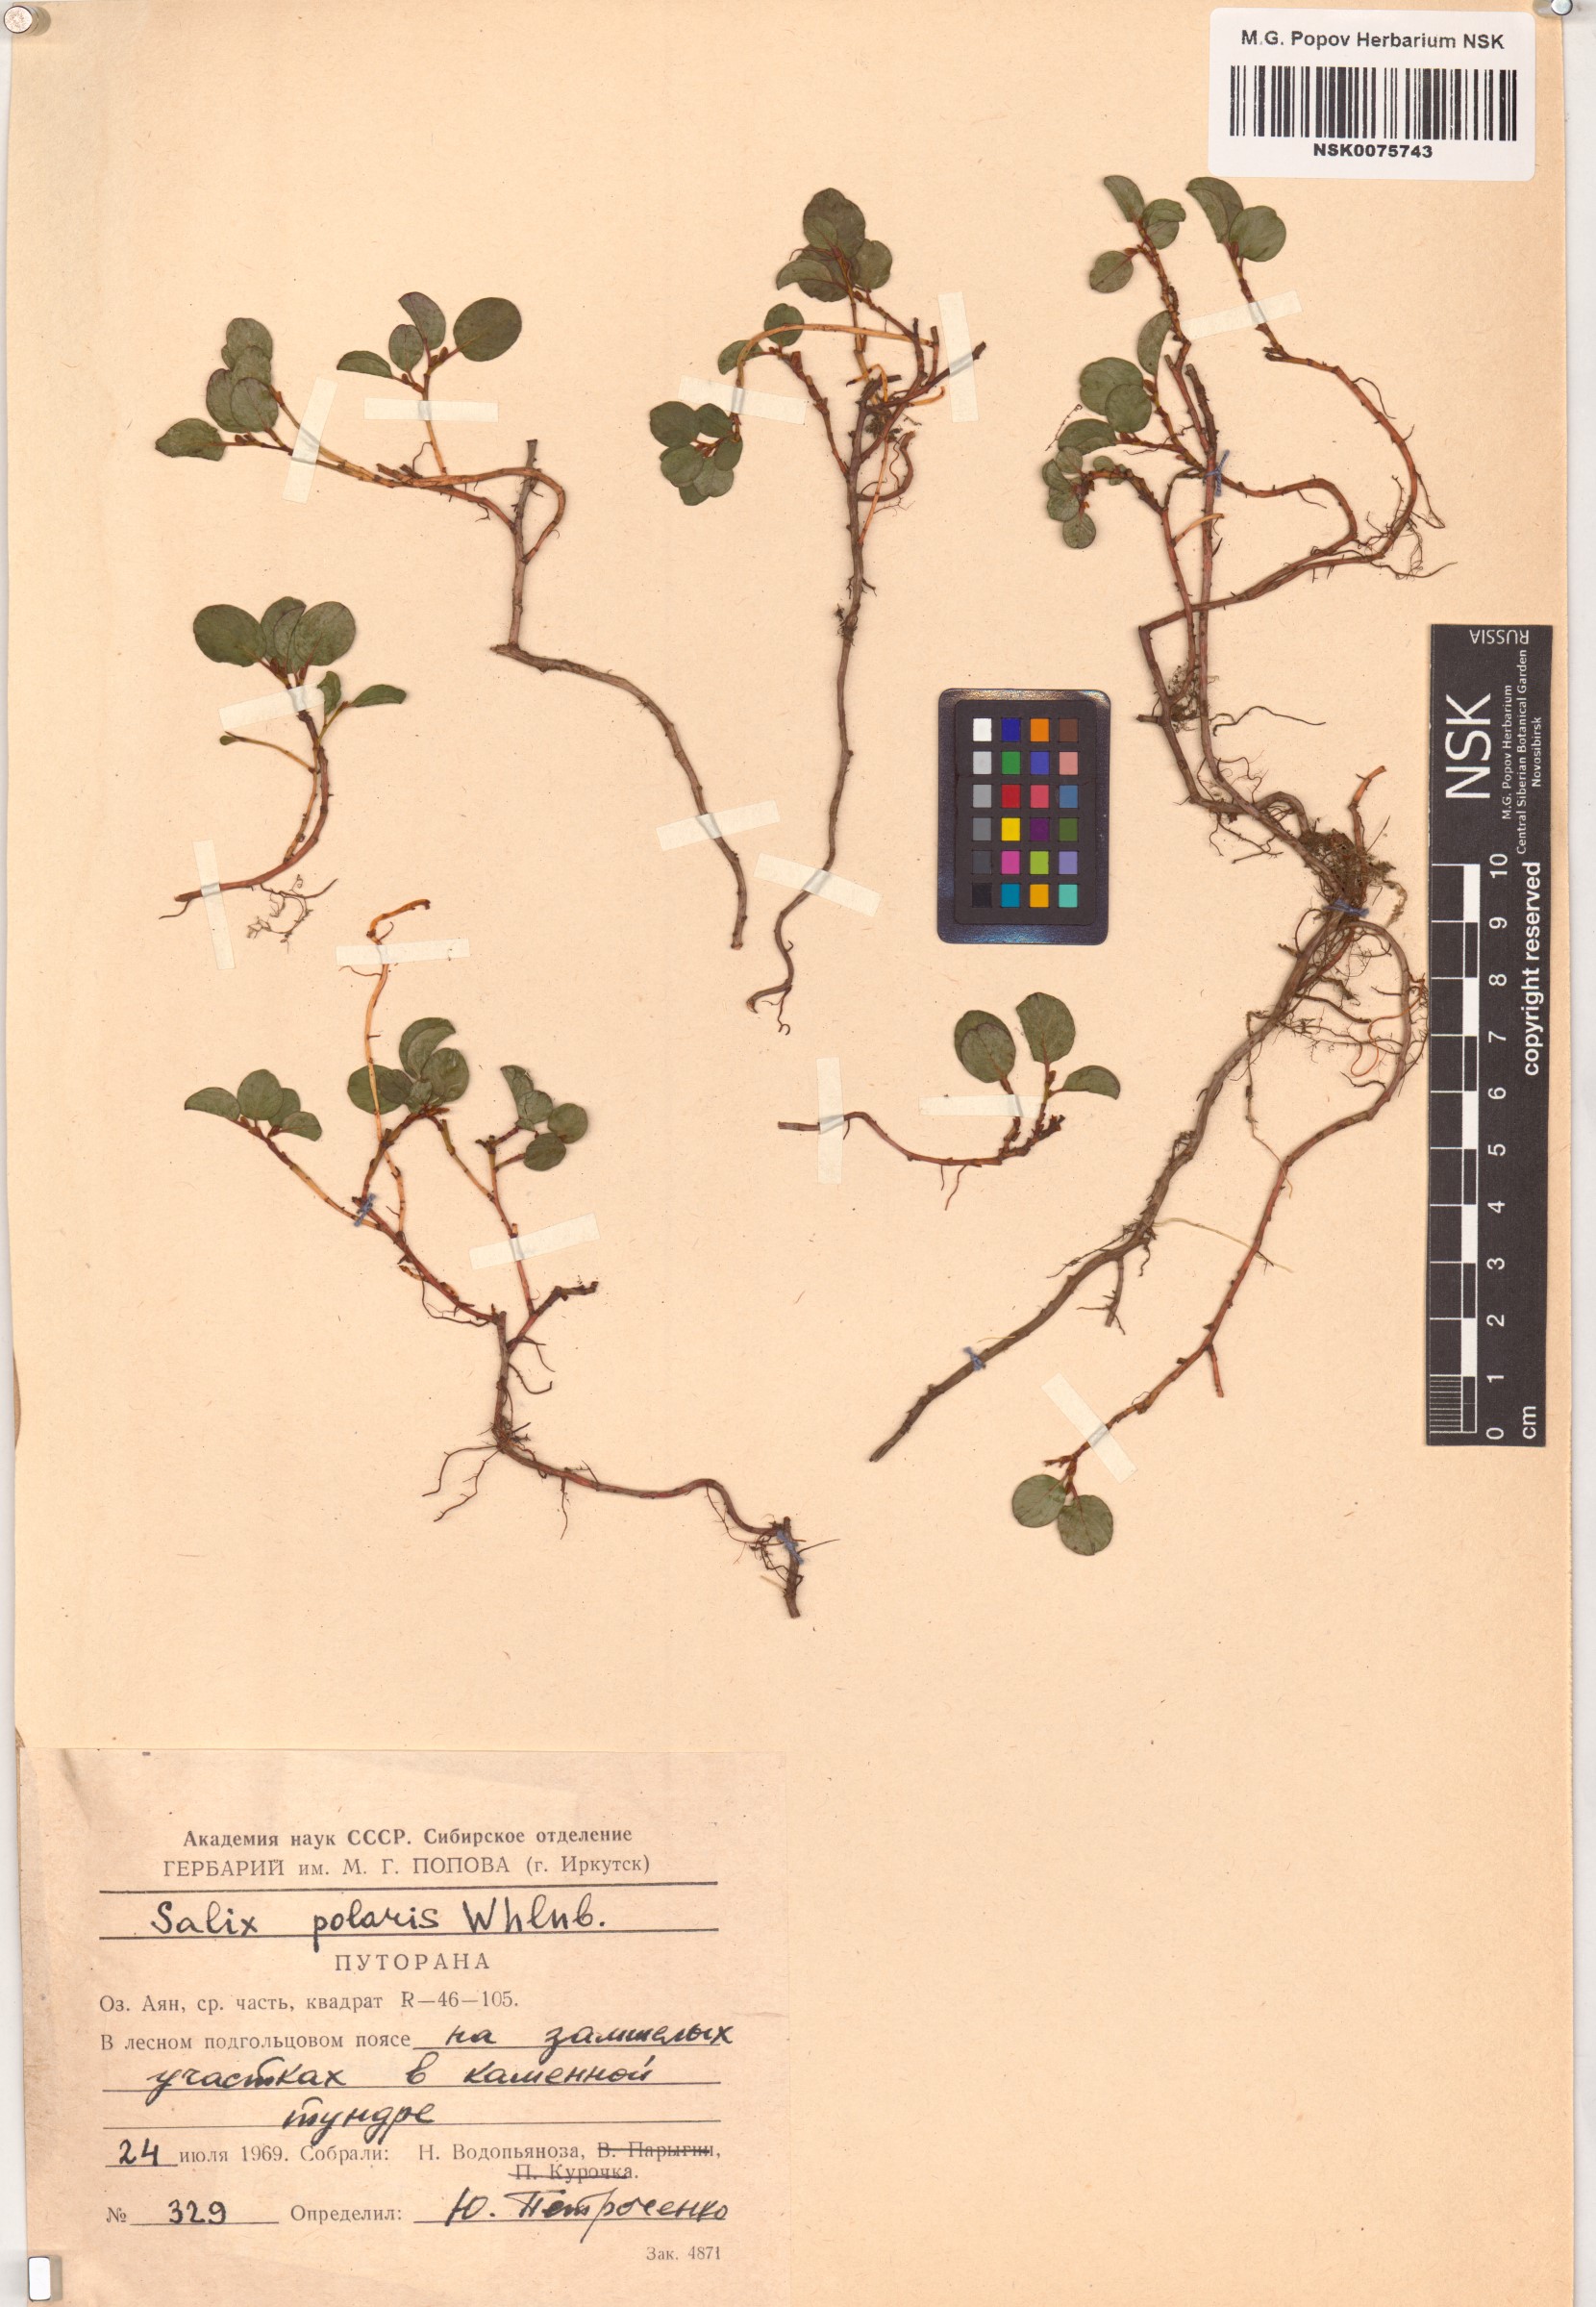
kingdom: Plantae
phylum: Tracheophyta
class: Magnoliopsida
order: Malpighiales
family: Salicaceae
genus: Salix
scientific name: Salix polaris
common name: Polar willow
